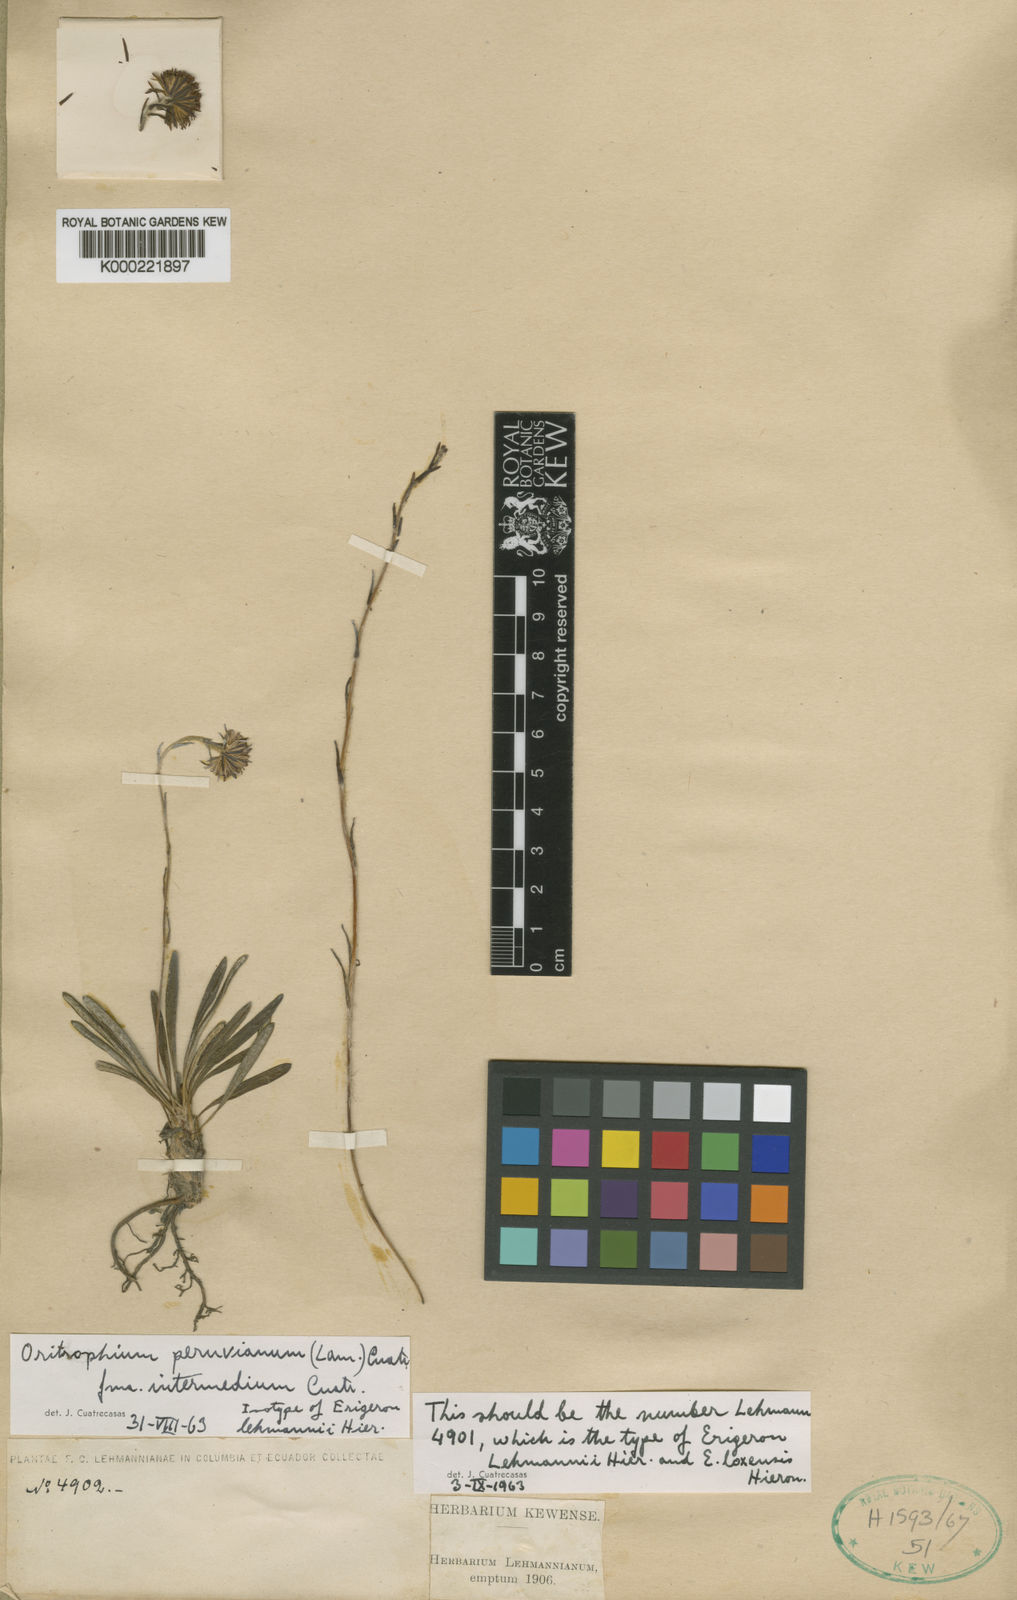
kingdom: Plantae
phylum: Tracheophyta
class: Magnoliopsida
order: Asterales
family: Asteraceae
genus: Oritrophium
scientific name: Oritrophium
